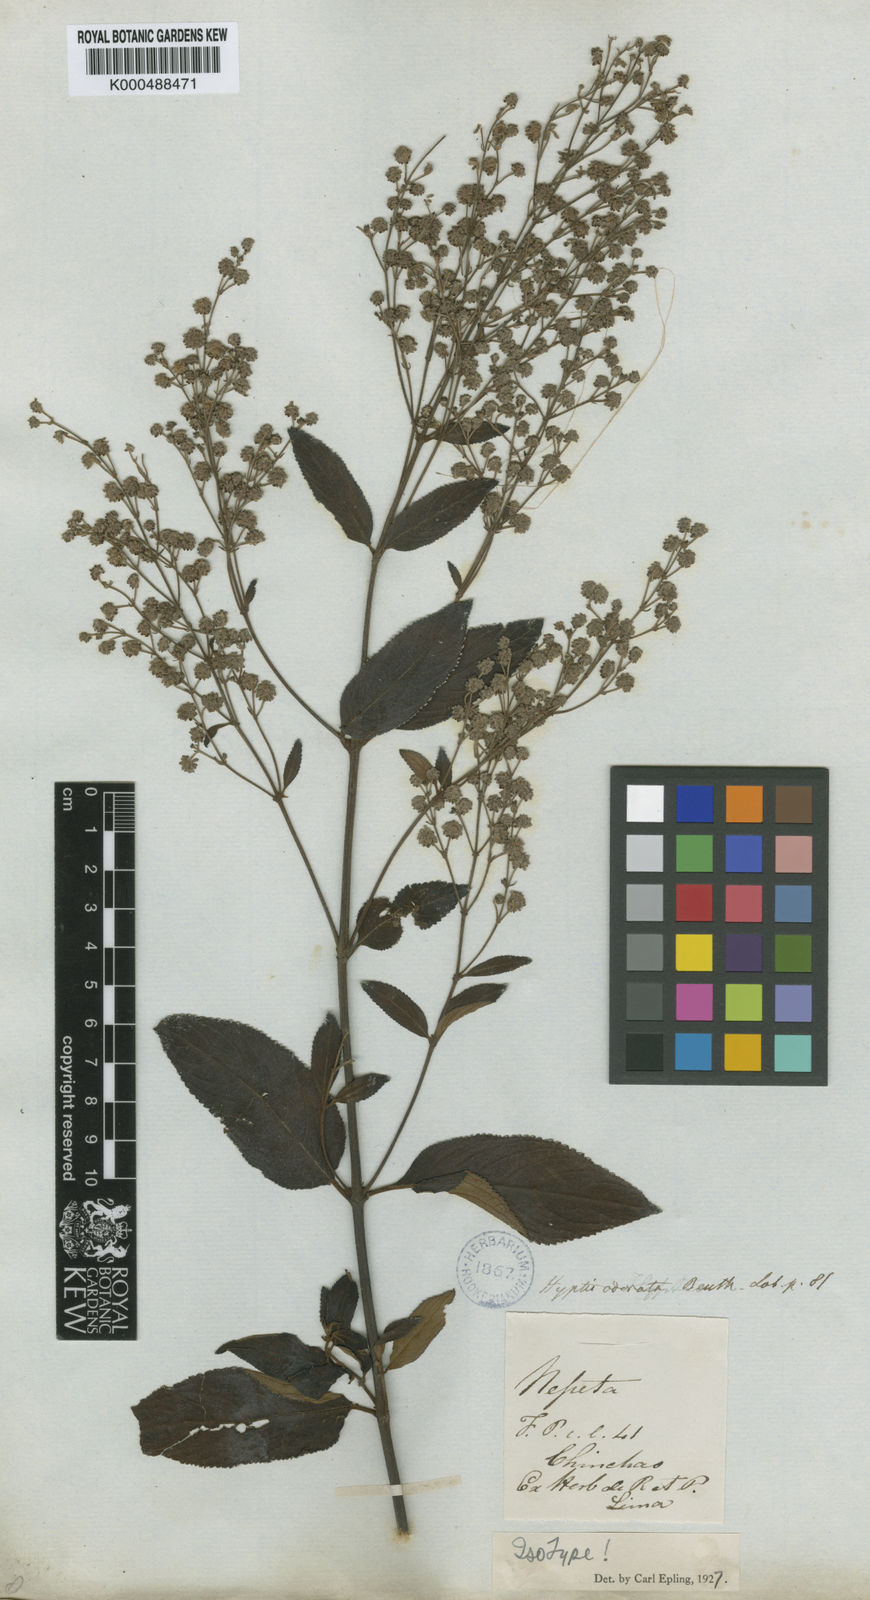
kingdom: Plantae
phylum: Tracheophyta
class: Magnoliopsida
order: Lamiales
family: Lamiaceae
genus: Hyptis
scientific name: Hyptis odorata
